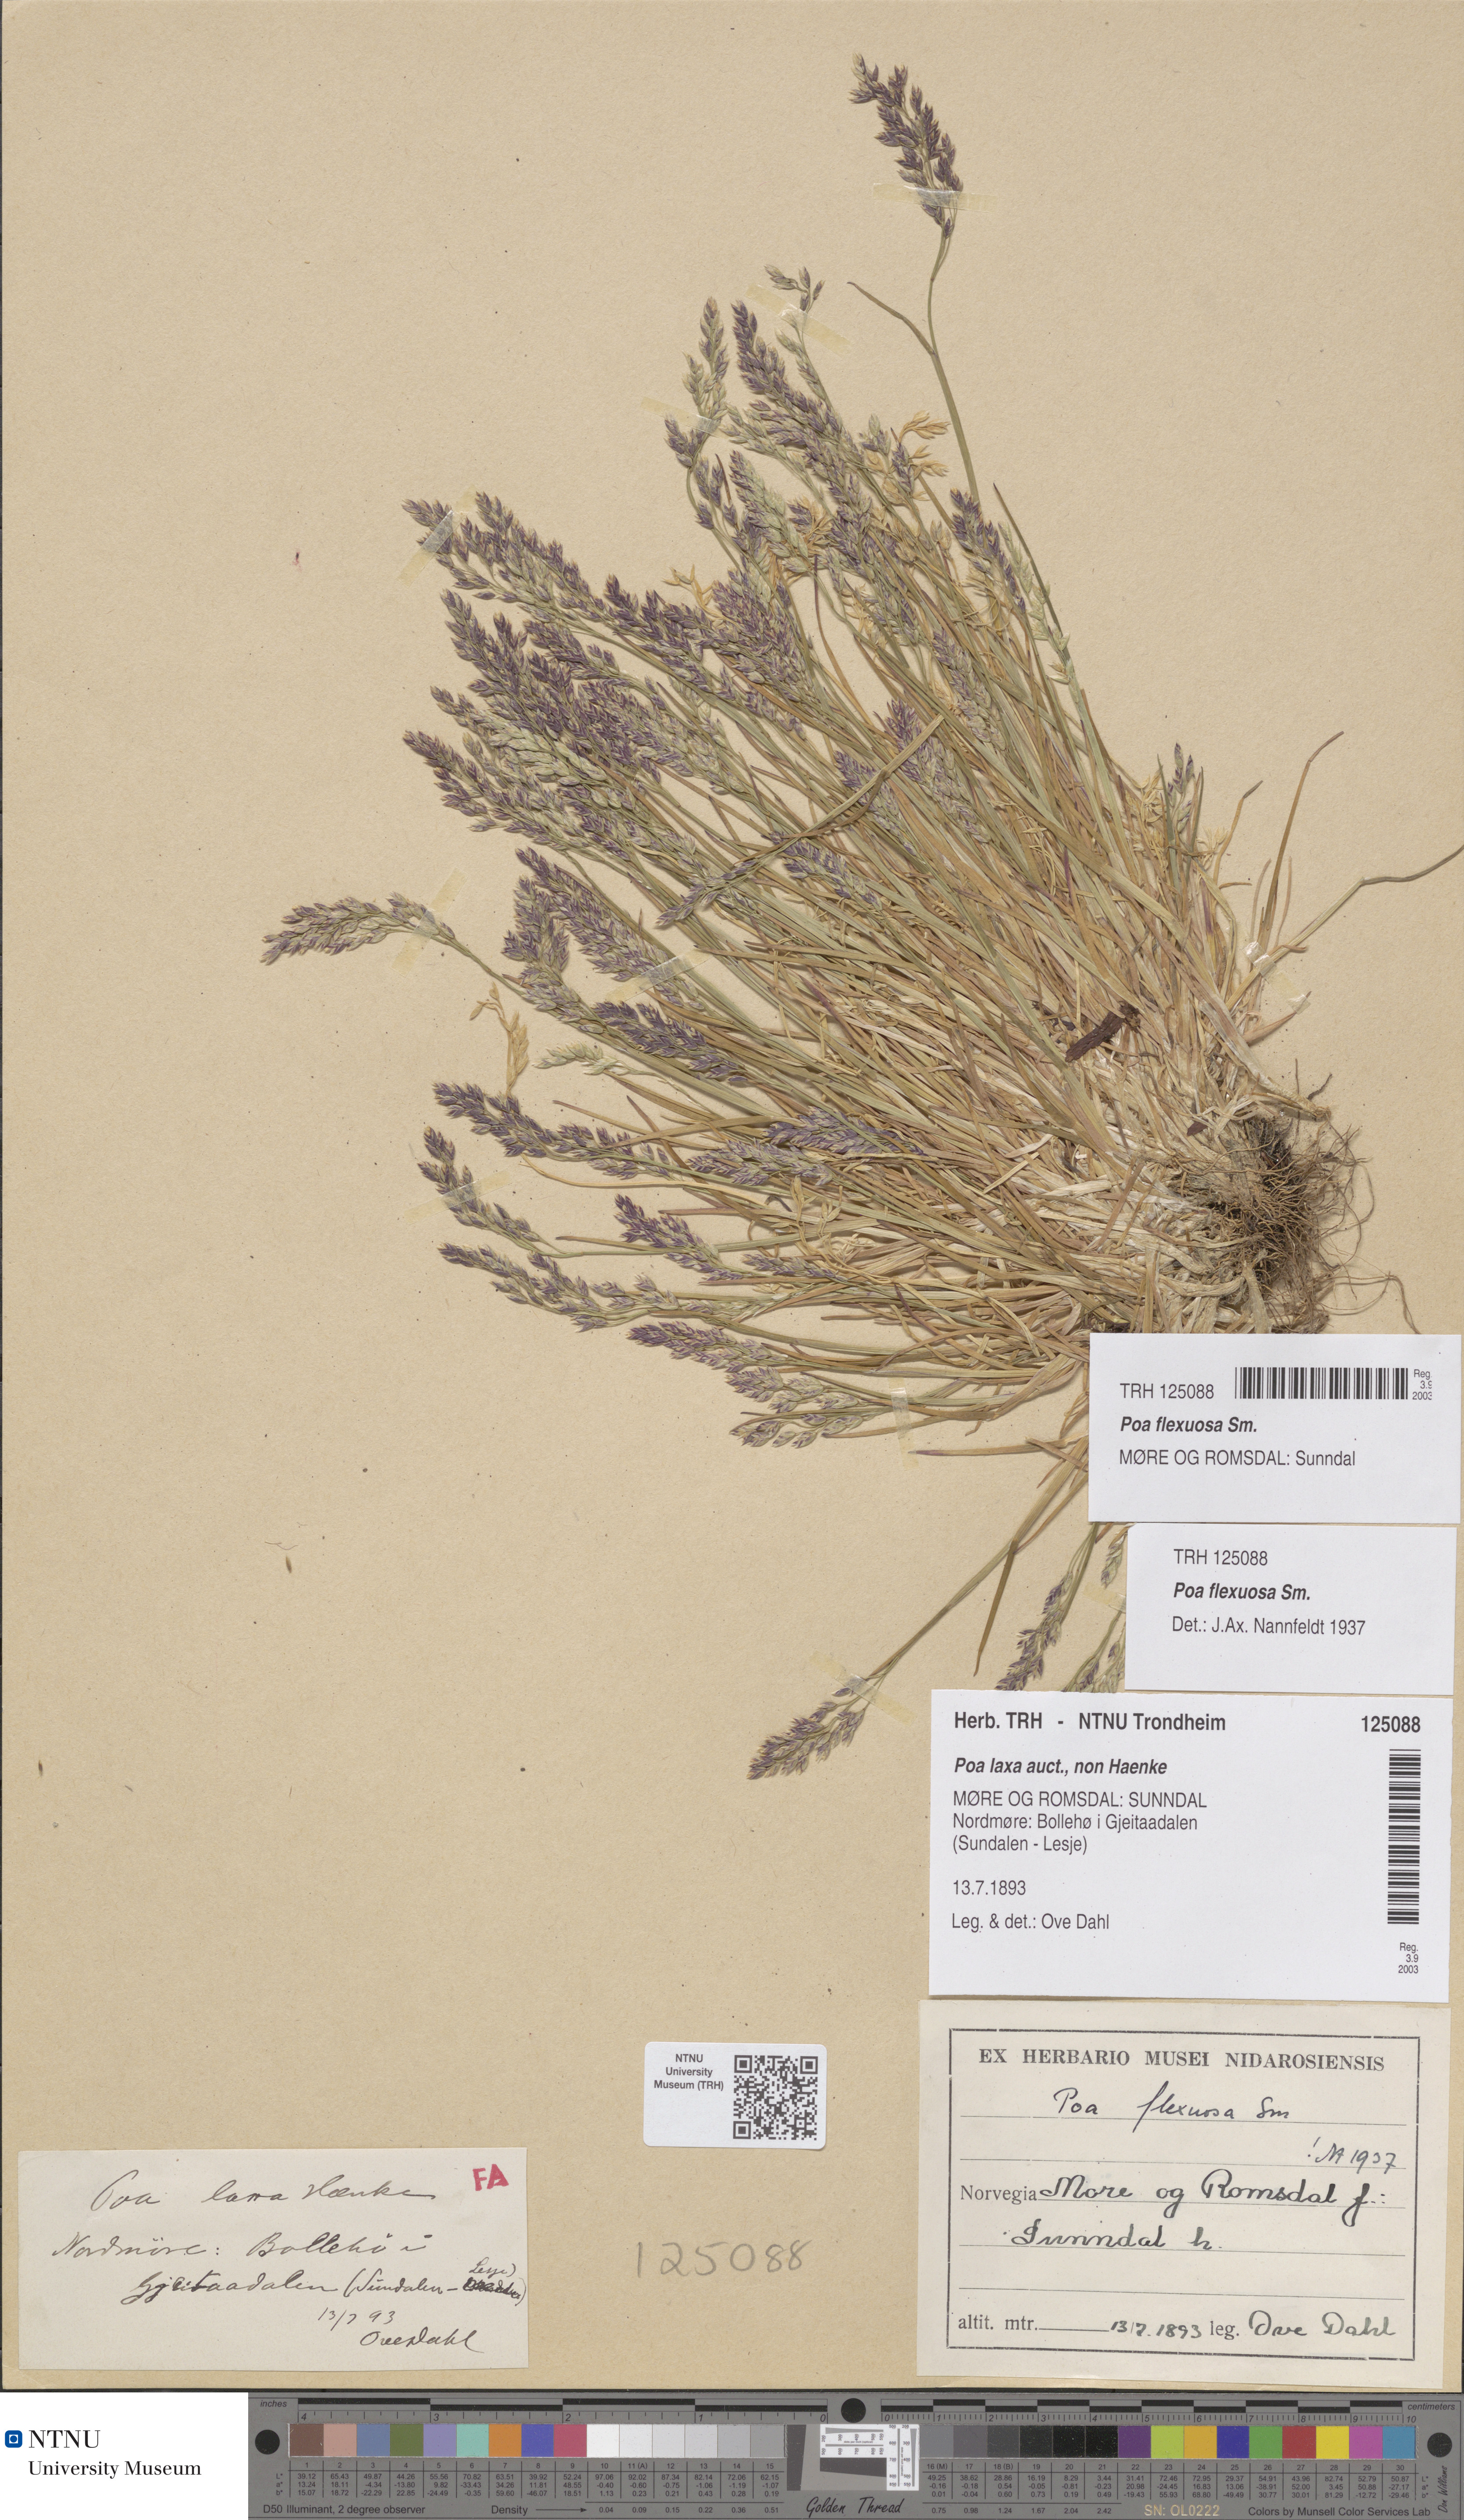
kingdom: Plantae
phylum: Tracheophyta
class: Liliopsida
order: Poales
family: Poaceae
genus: Poa
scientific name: Poa flexuosa
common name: Wavy meadow-grass
